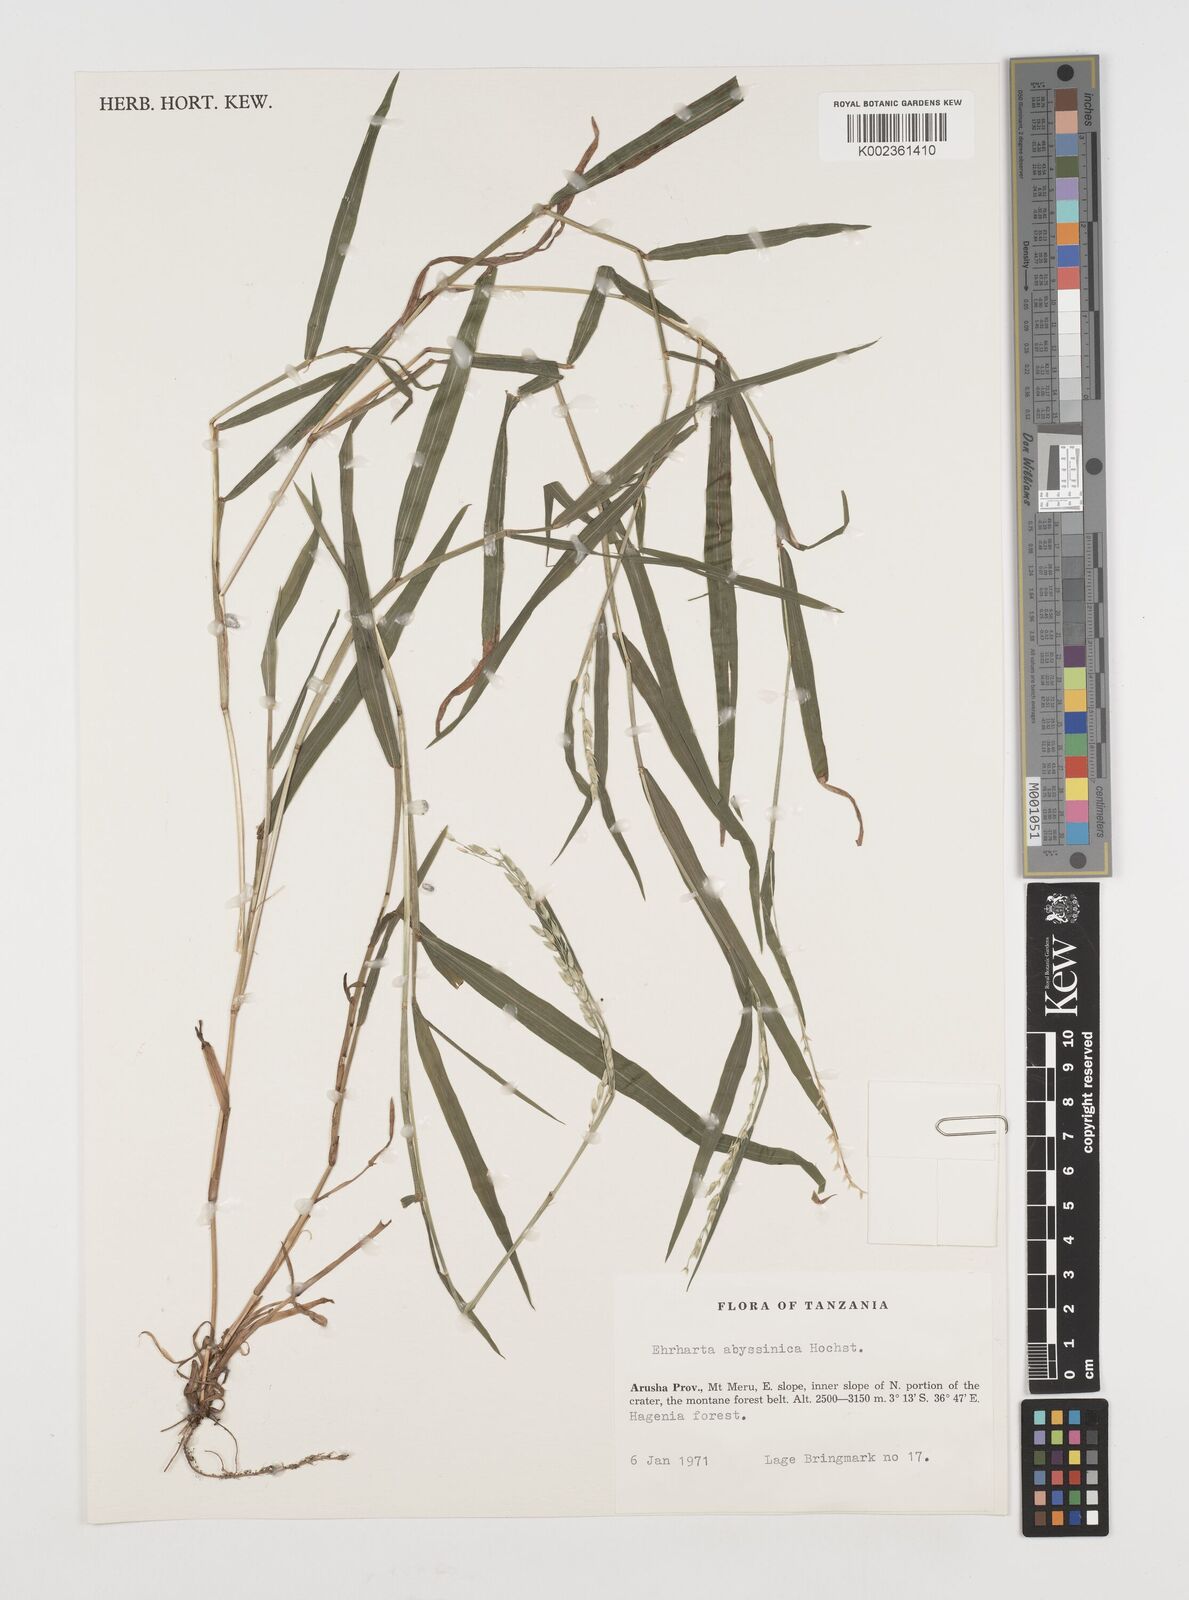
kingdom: Plantae
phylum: Tracheophyta
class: Liliopsida
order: Poales
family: Poaceae
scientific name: Poaceae
